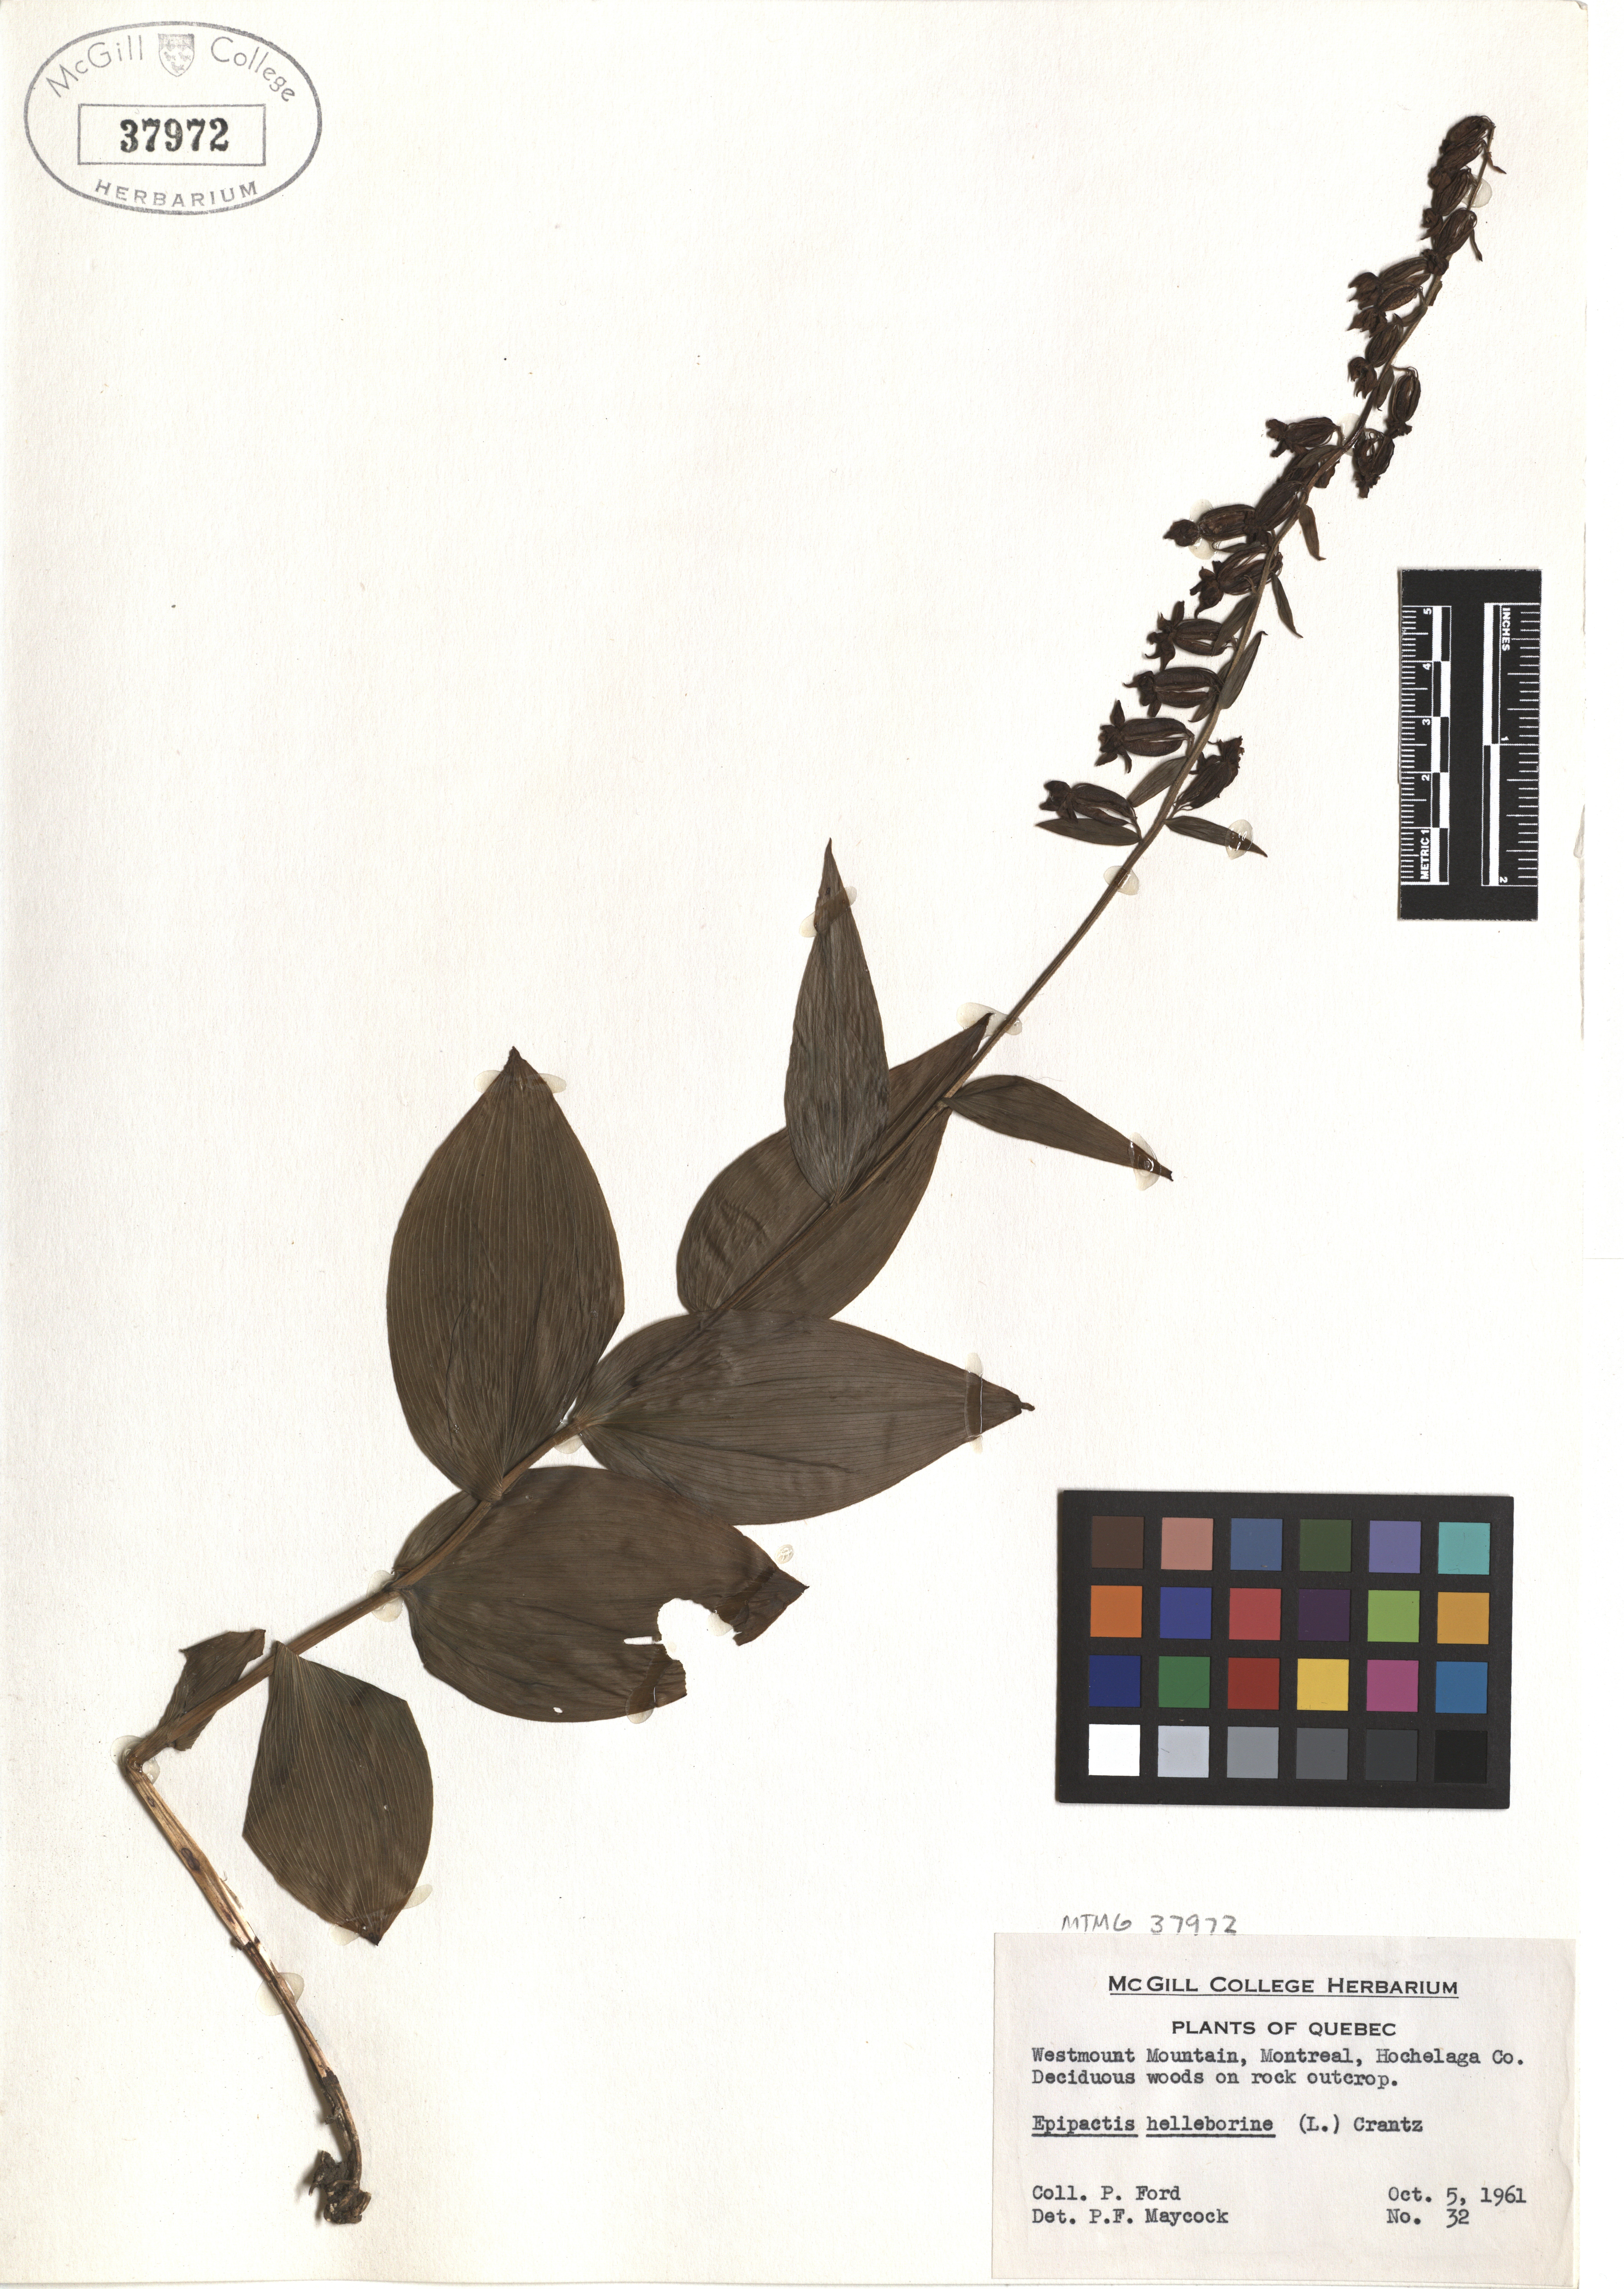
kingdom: Plantae
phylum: Tracheophyta
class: Liliopsida
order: Asparagales
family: Orchidaceae
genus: Epipactis
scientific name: Epipactis helleborine
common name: Broad-leaved helleborine
